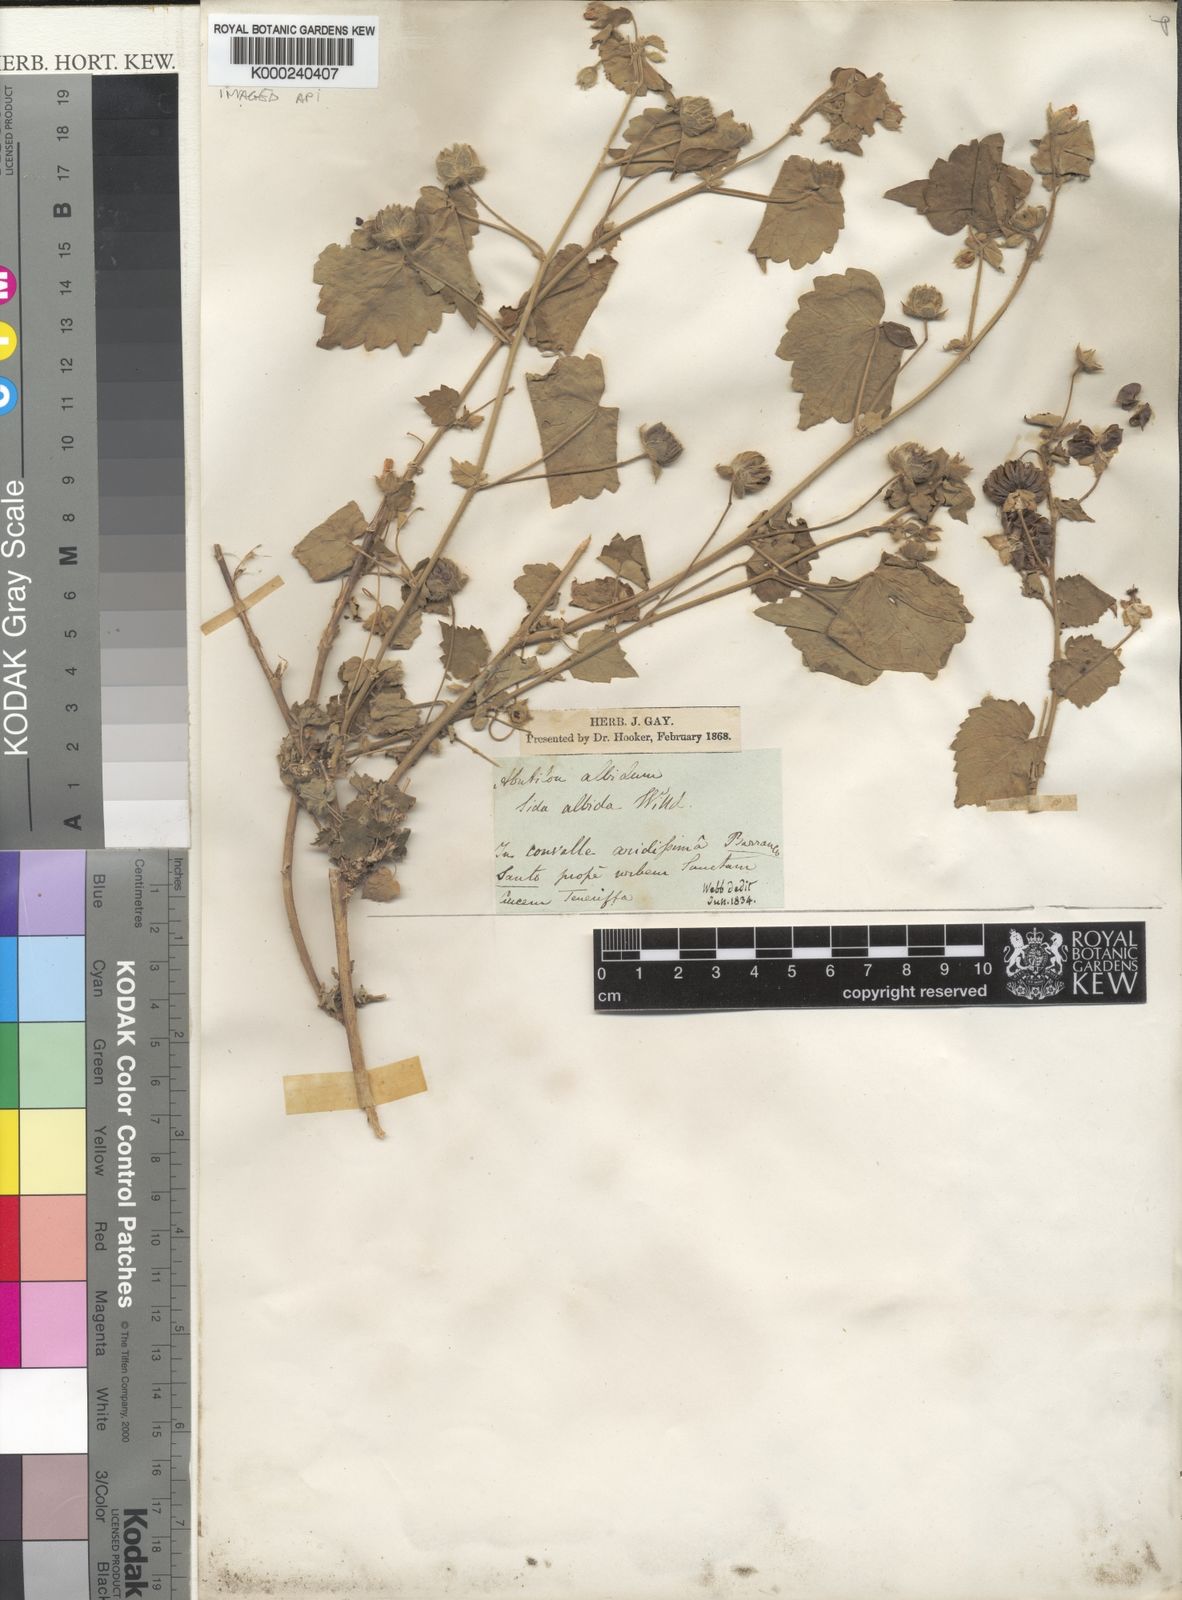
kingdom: Plantae
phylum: Tracheophyta
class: Magnoliopsida
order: Malvales
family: Malvaceae
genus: Abutilon
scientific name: Abutilon
